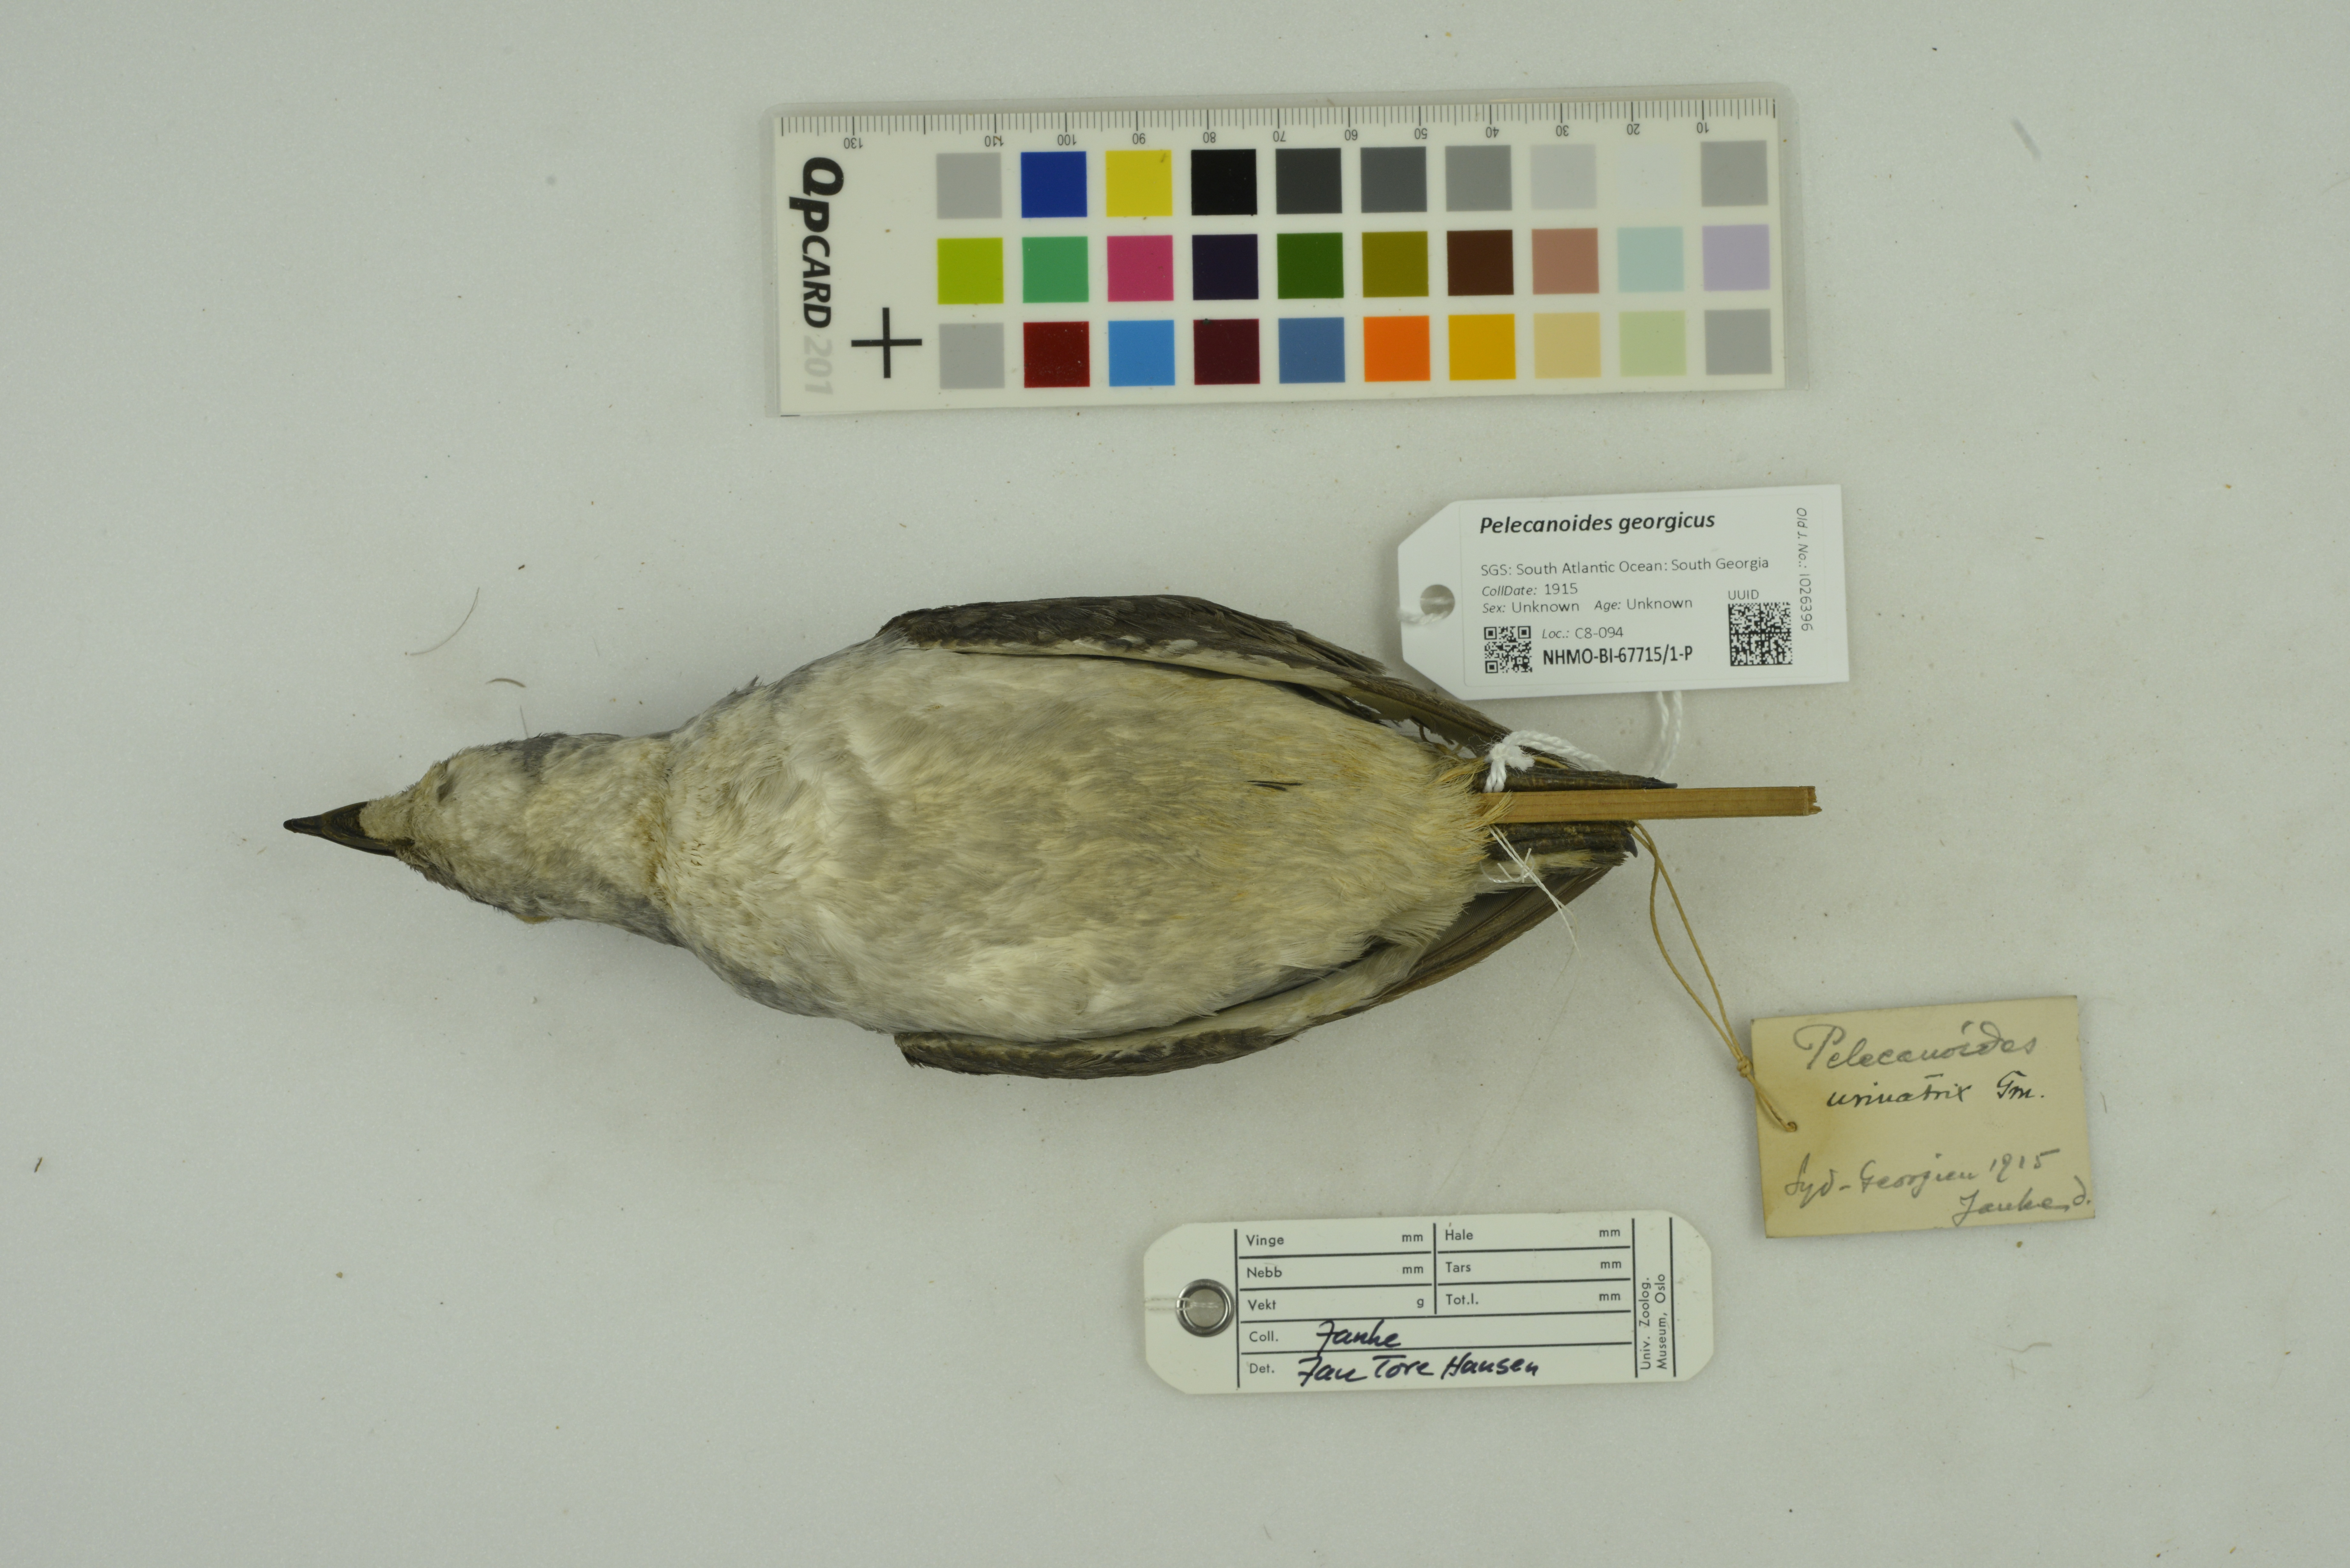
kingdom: Animalia
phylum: Chordata
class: Aves
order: Procellariiformes
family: Pelecanoididae
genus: Pelecanoides
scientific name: Pelecanoides georgicus
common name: South georgia diving-petrel
